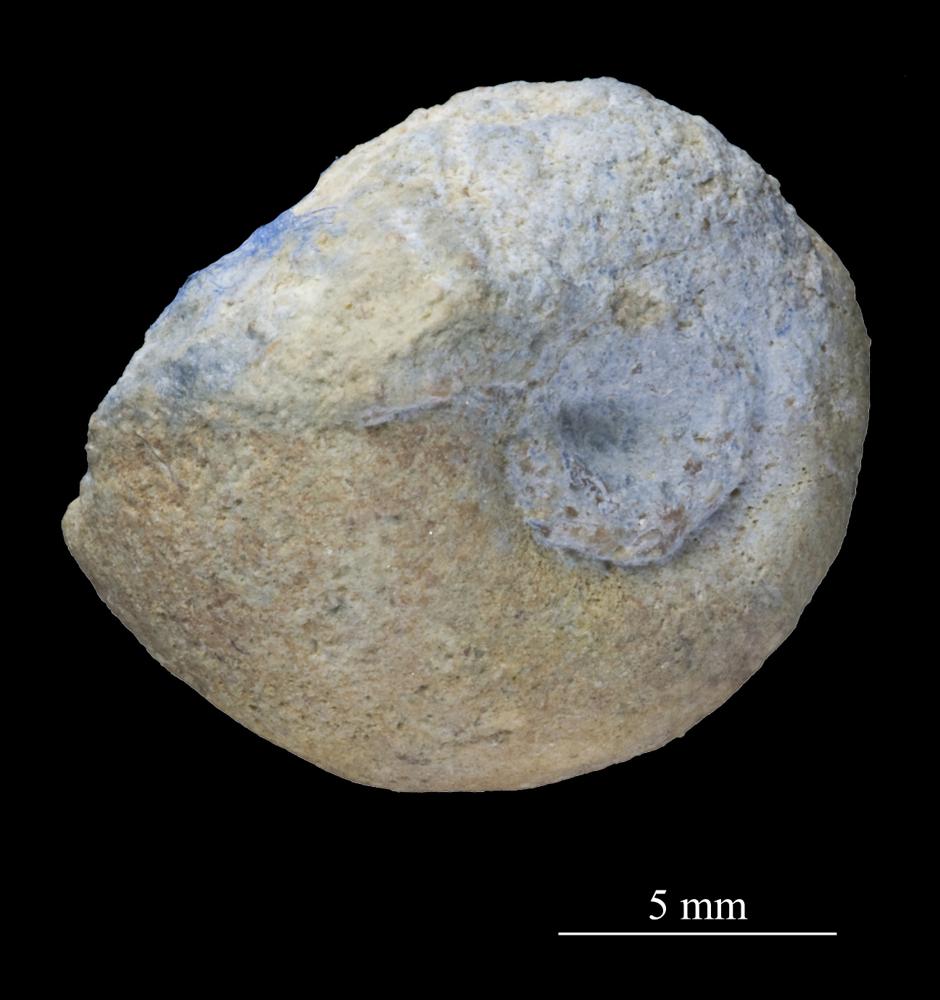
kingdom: Animalia
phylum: Mollusca
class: Gastropoda
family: Isospiridae
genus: Isospira
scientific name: Isospira bucanioides
